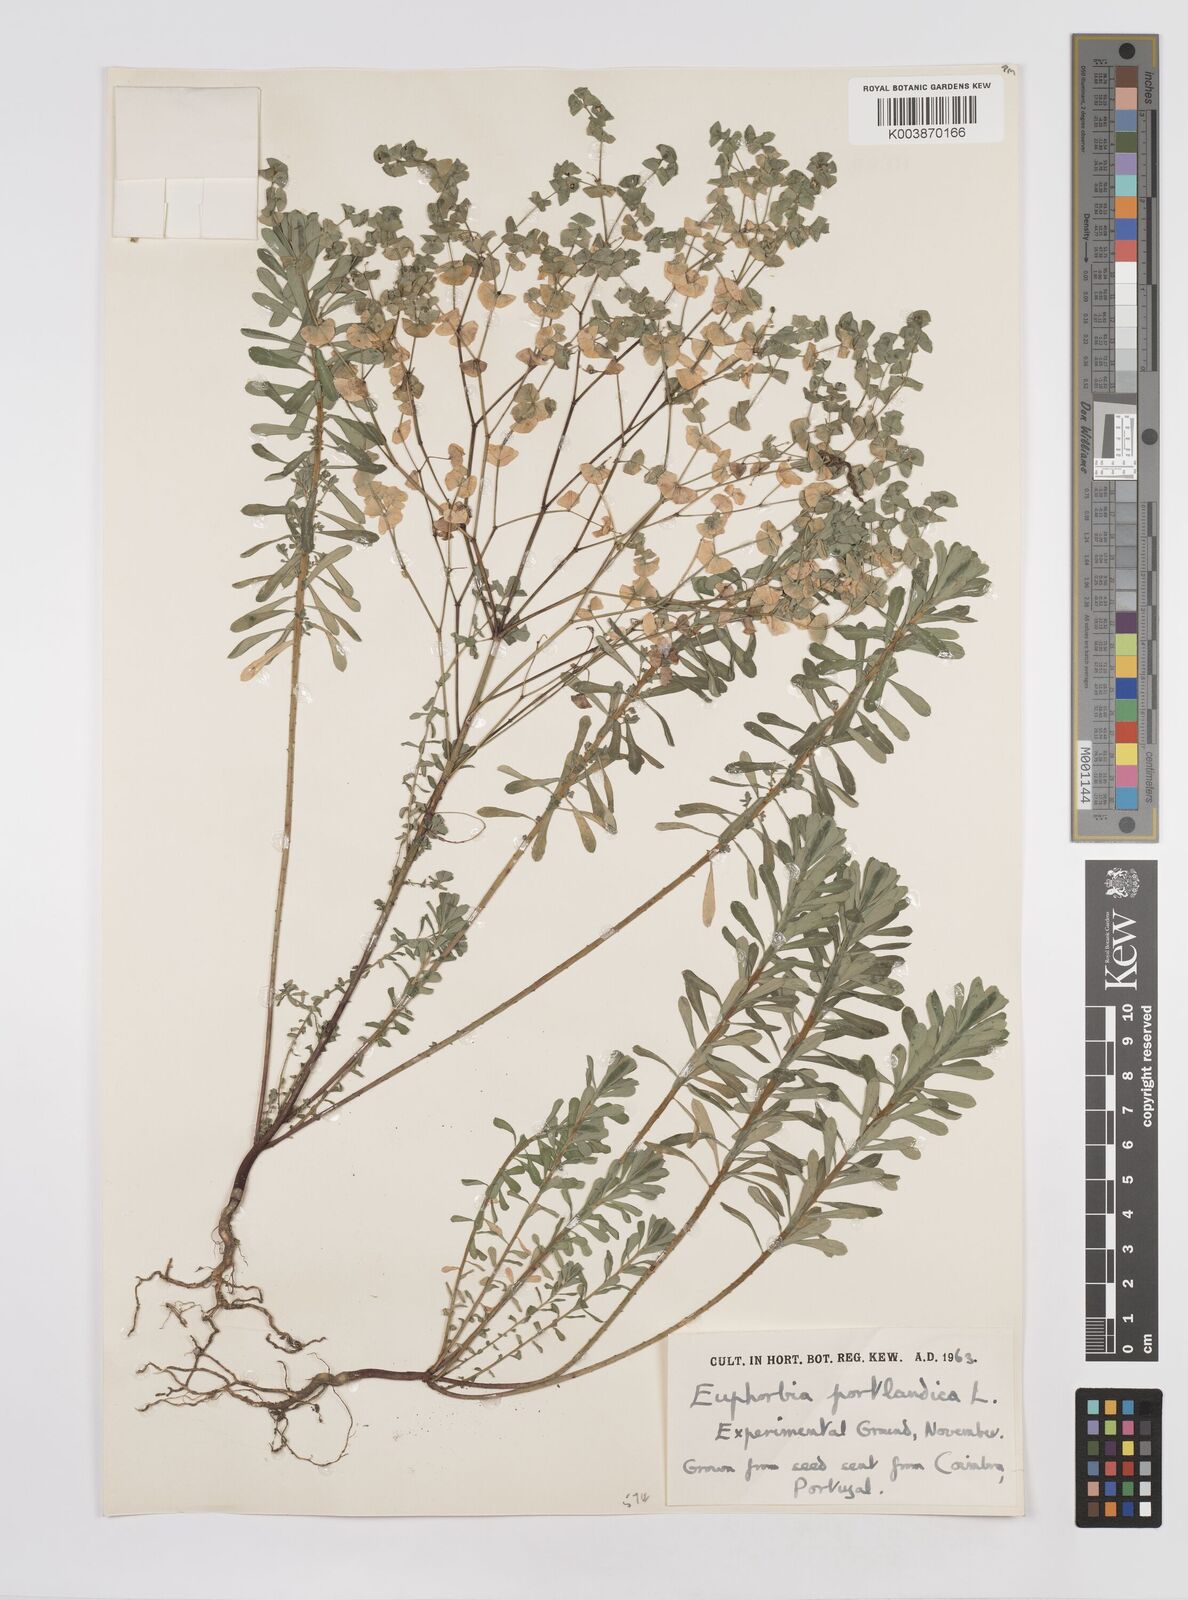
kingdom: Plantae
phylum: Tracheophyta
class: Magnoliopsida
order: Malpighiales
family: Euphorbiaceae
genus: Euphorbia
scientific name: Euphorbia portlandica
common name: Portland spurge
